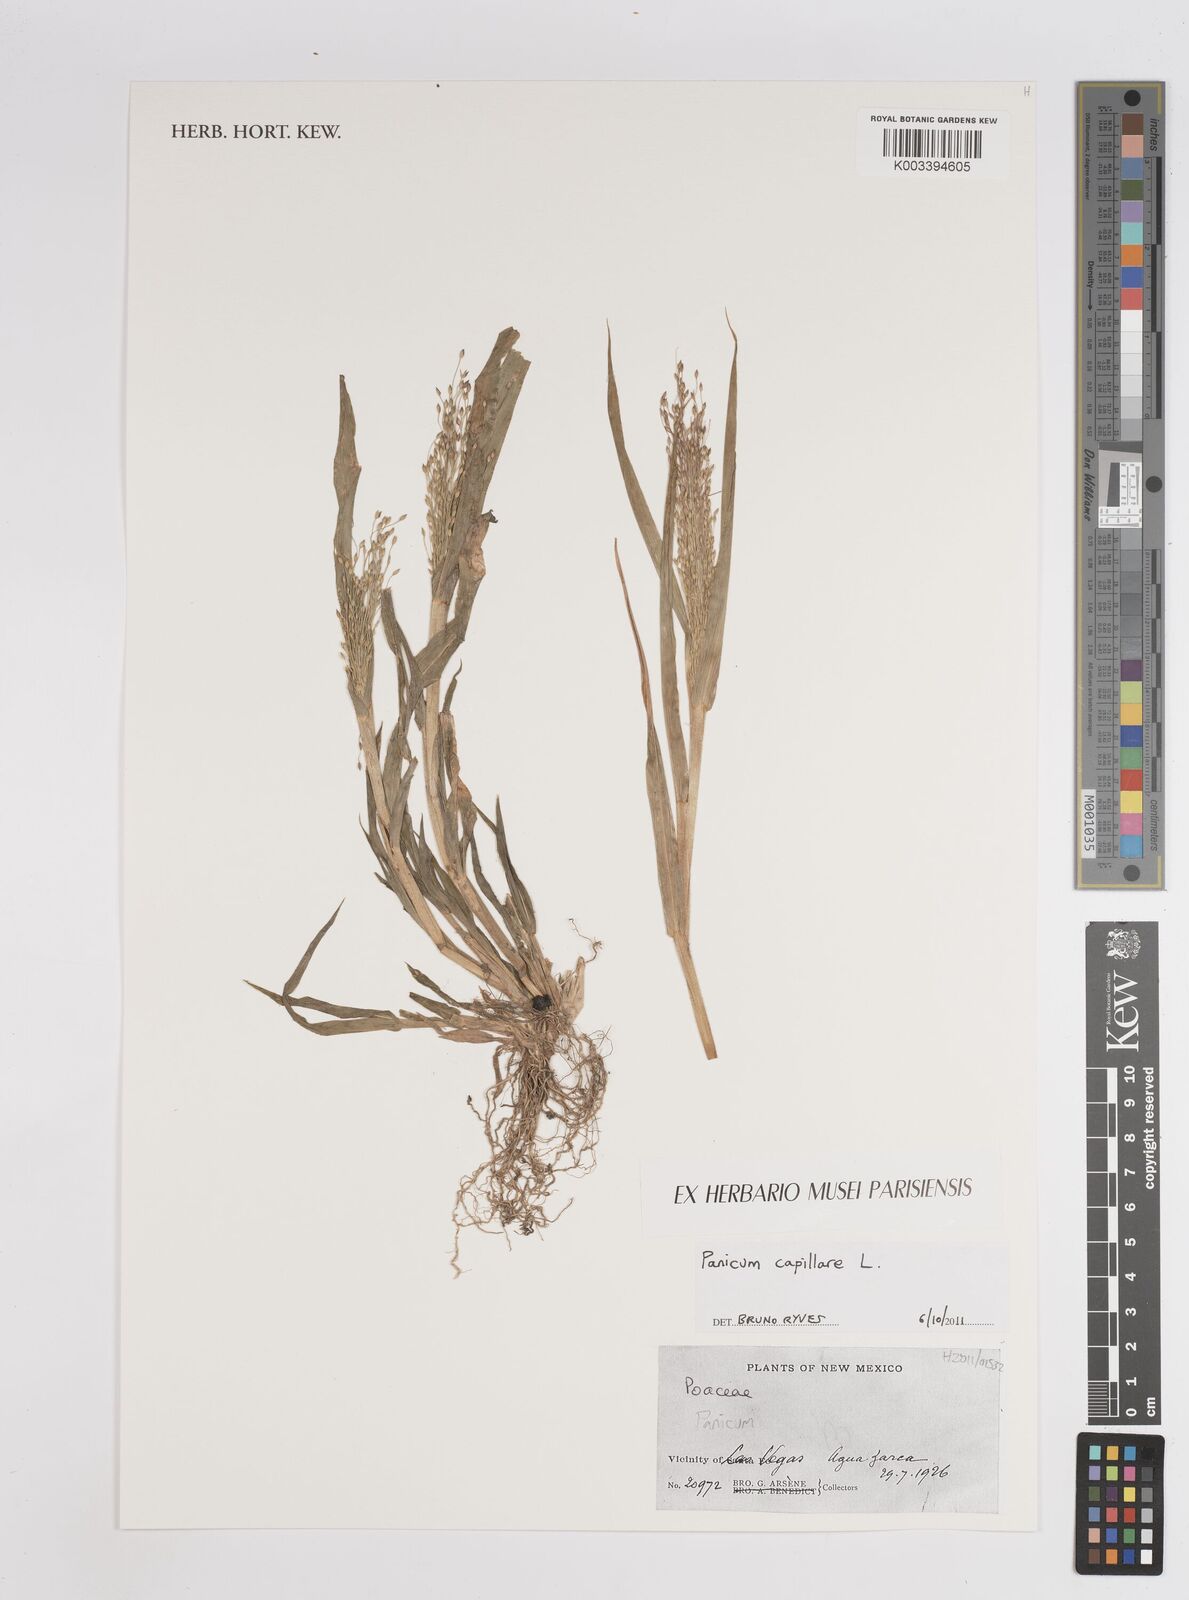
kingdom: Plantae
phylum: Tracheophyta
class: Liliopsida
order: Poales
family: Poaceae
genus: Panicum
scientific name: Panicum capillare
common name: Witch-grass
